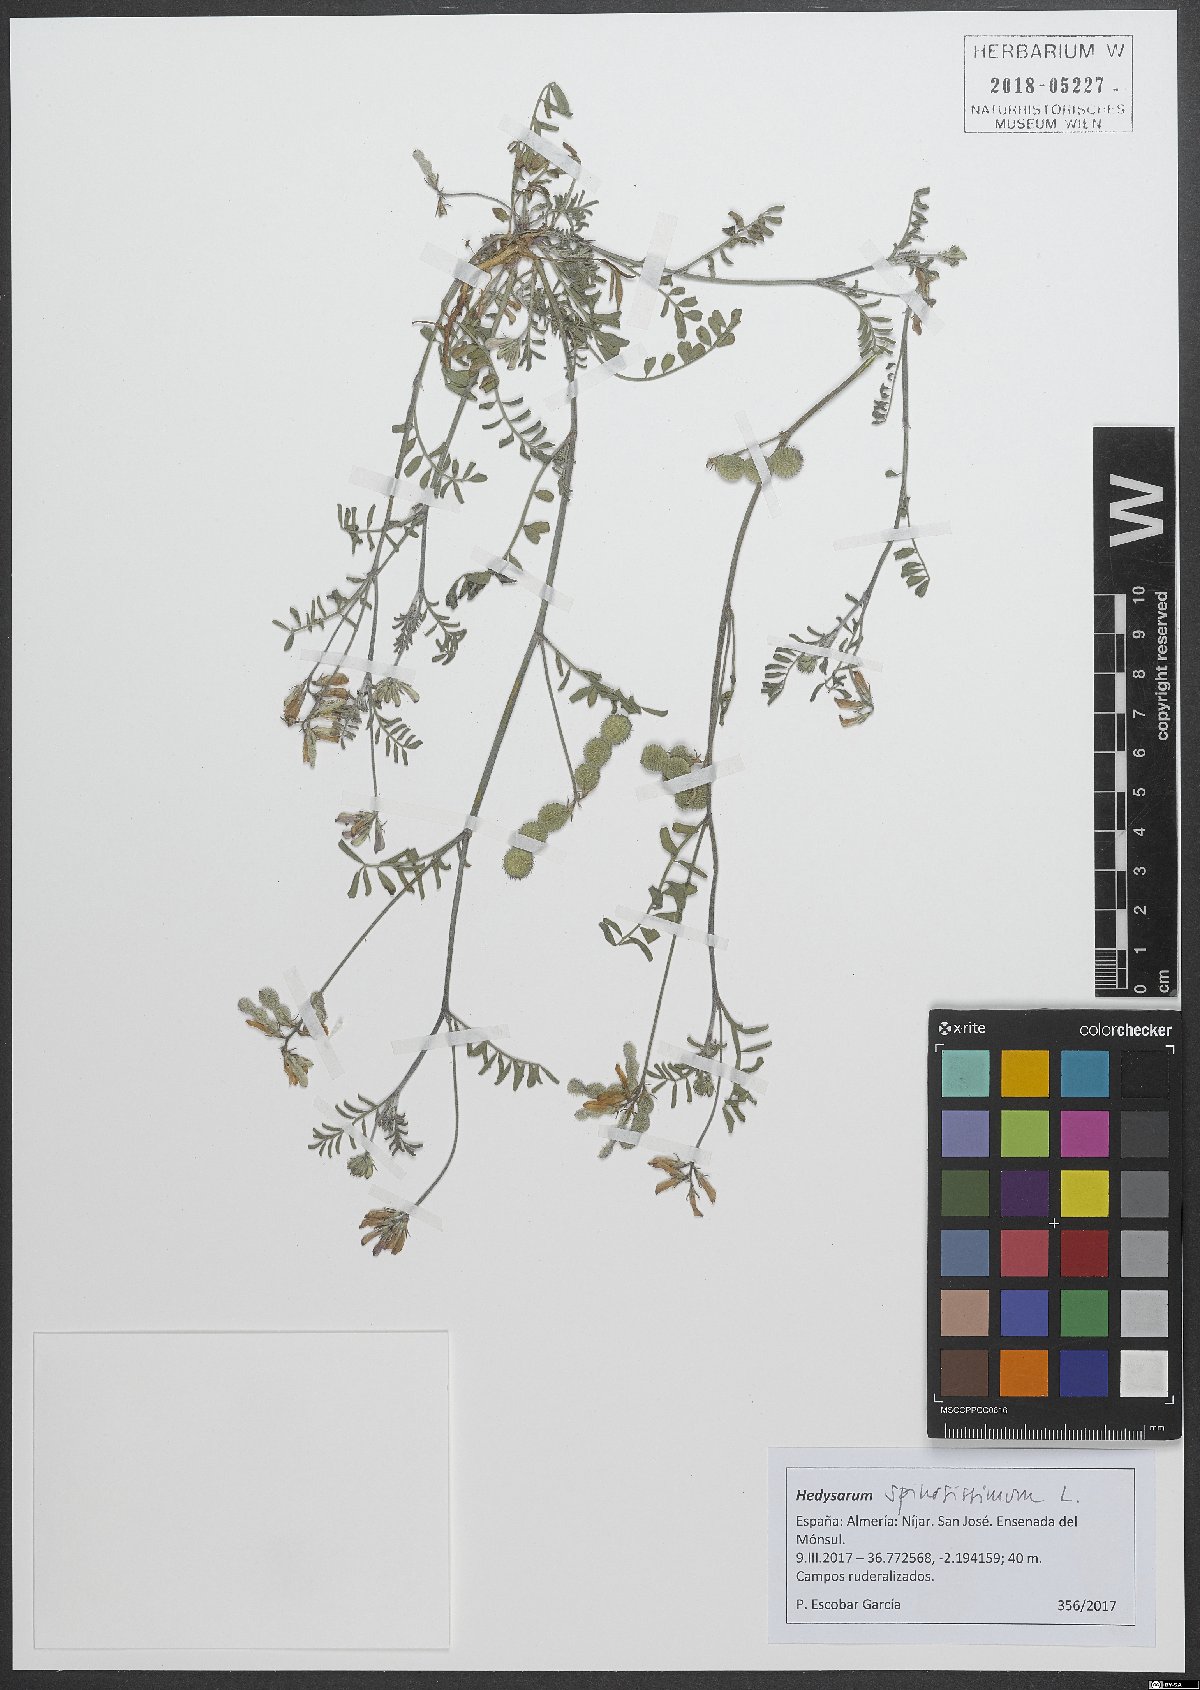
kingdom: Plantae
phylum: Tracheophyta
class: Magnoliopsida
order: Fabales
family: Fabaceae
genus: Sulla
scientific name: Sulla spinosissima
